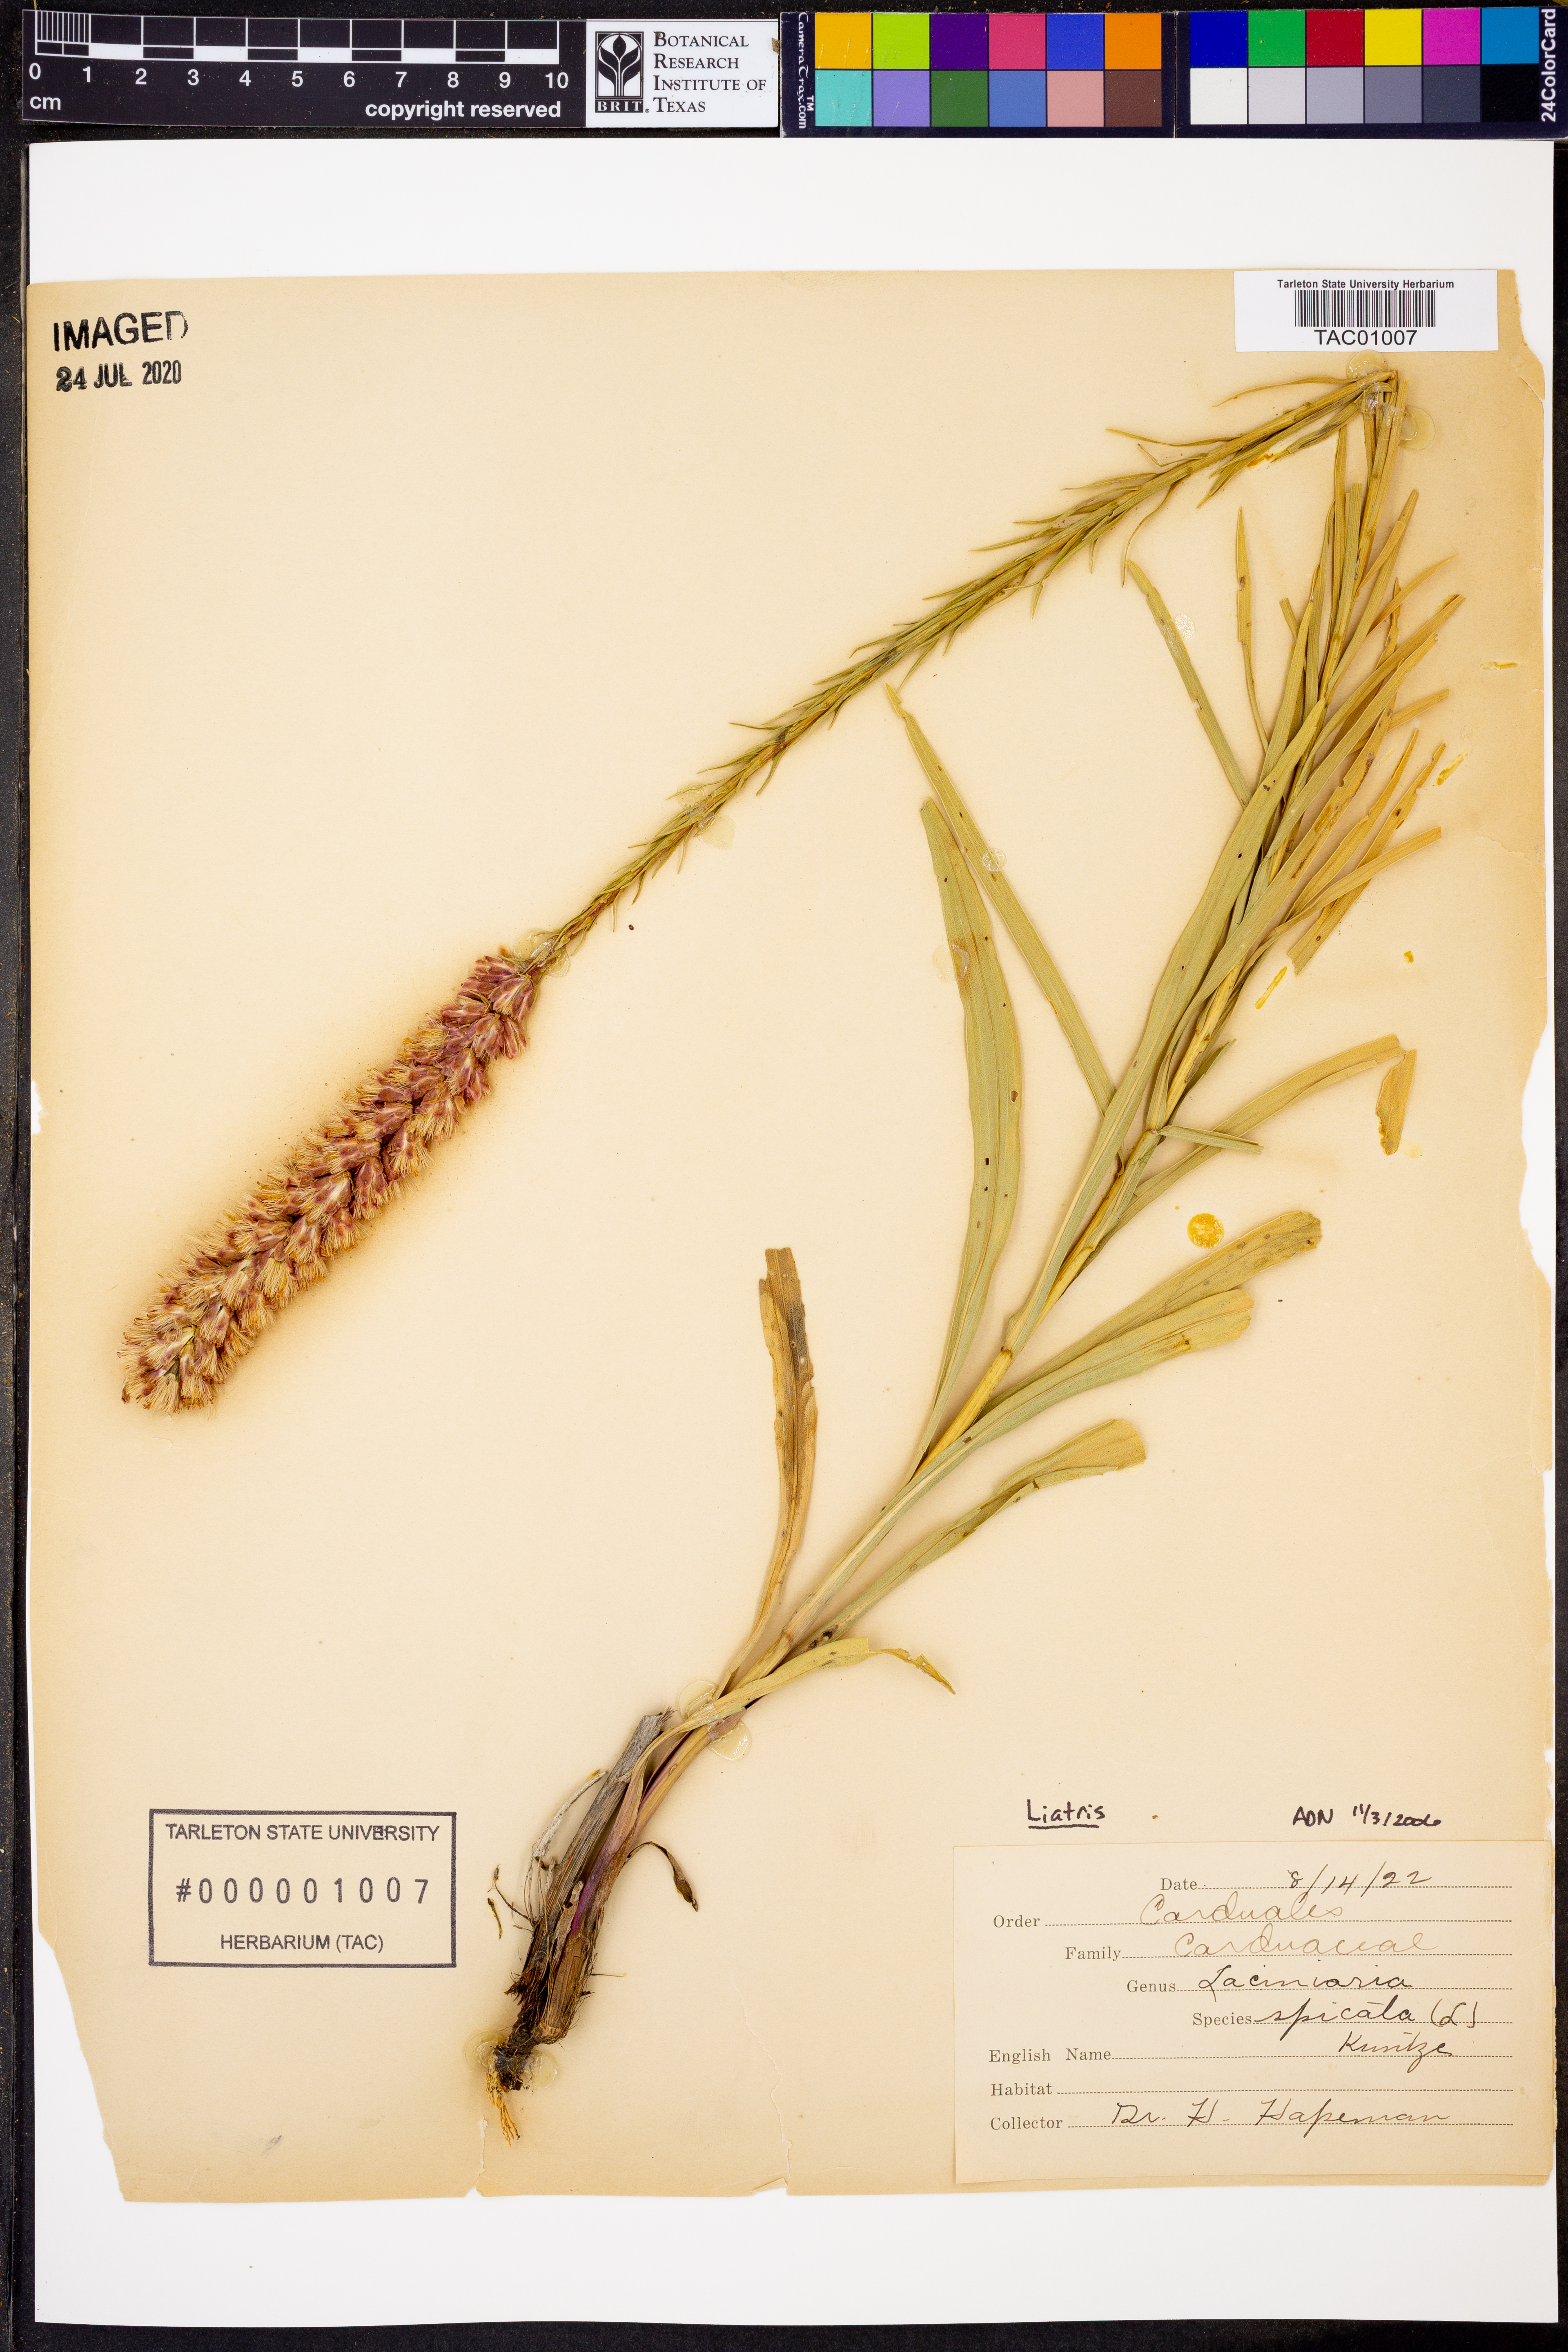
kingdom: Plantae
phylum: Tracheophyta
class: Magnoliopsida
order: Asterales
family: Asteraceae
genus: Liatris
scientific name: Liatris spicata
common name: Florist gayfeather
